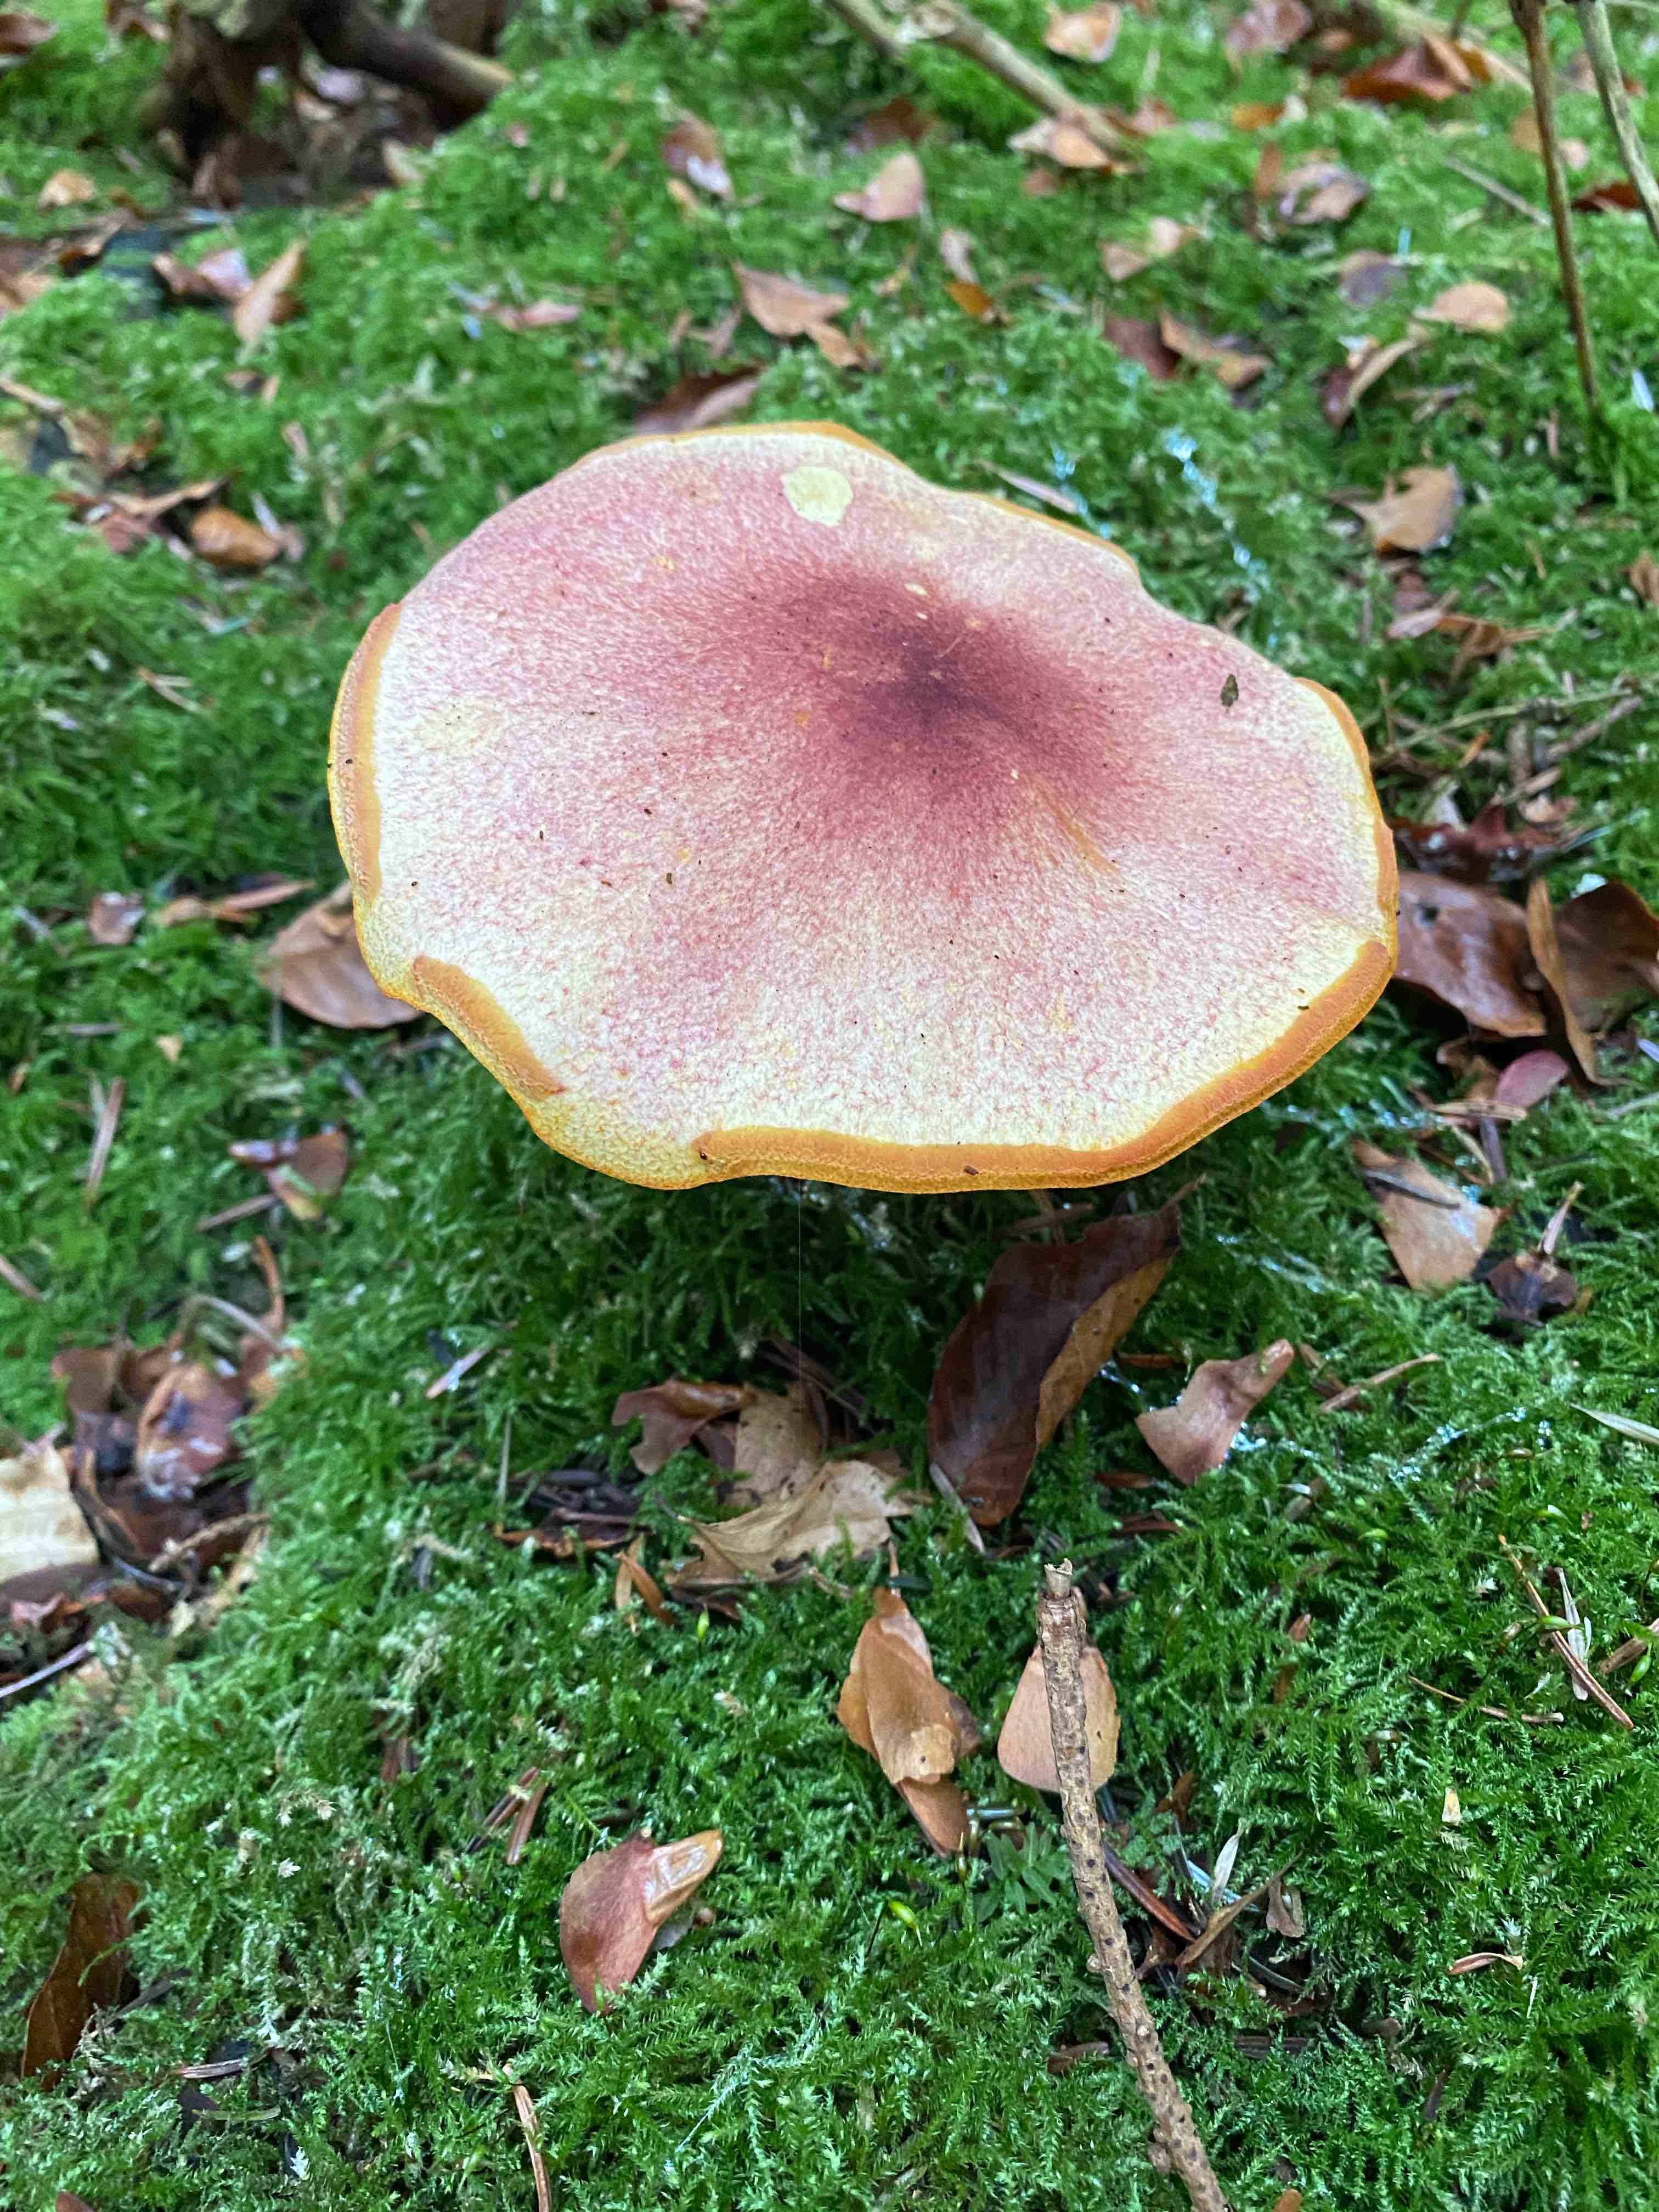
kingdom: Fungi
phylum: Basidiomycota
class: Agaricomycetes
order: Agaricales
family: Tricholomataceae
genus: Tricholomopsis
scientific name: Tricholomopsis rutilans
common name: purpur-væbnerhat
